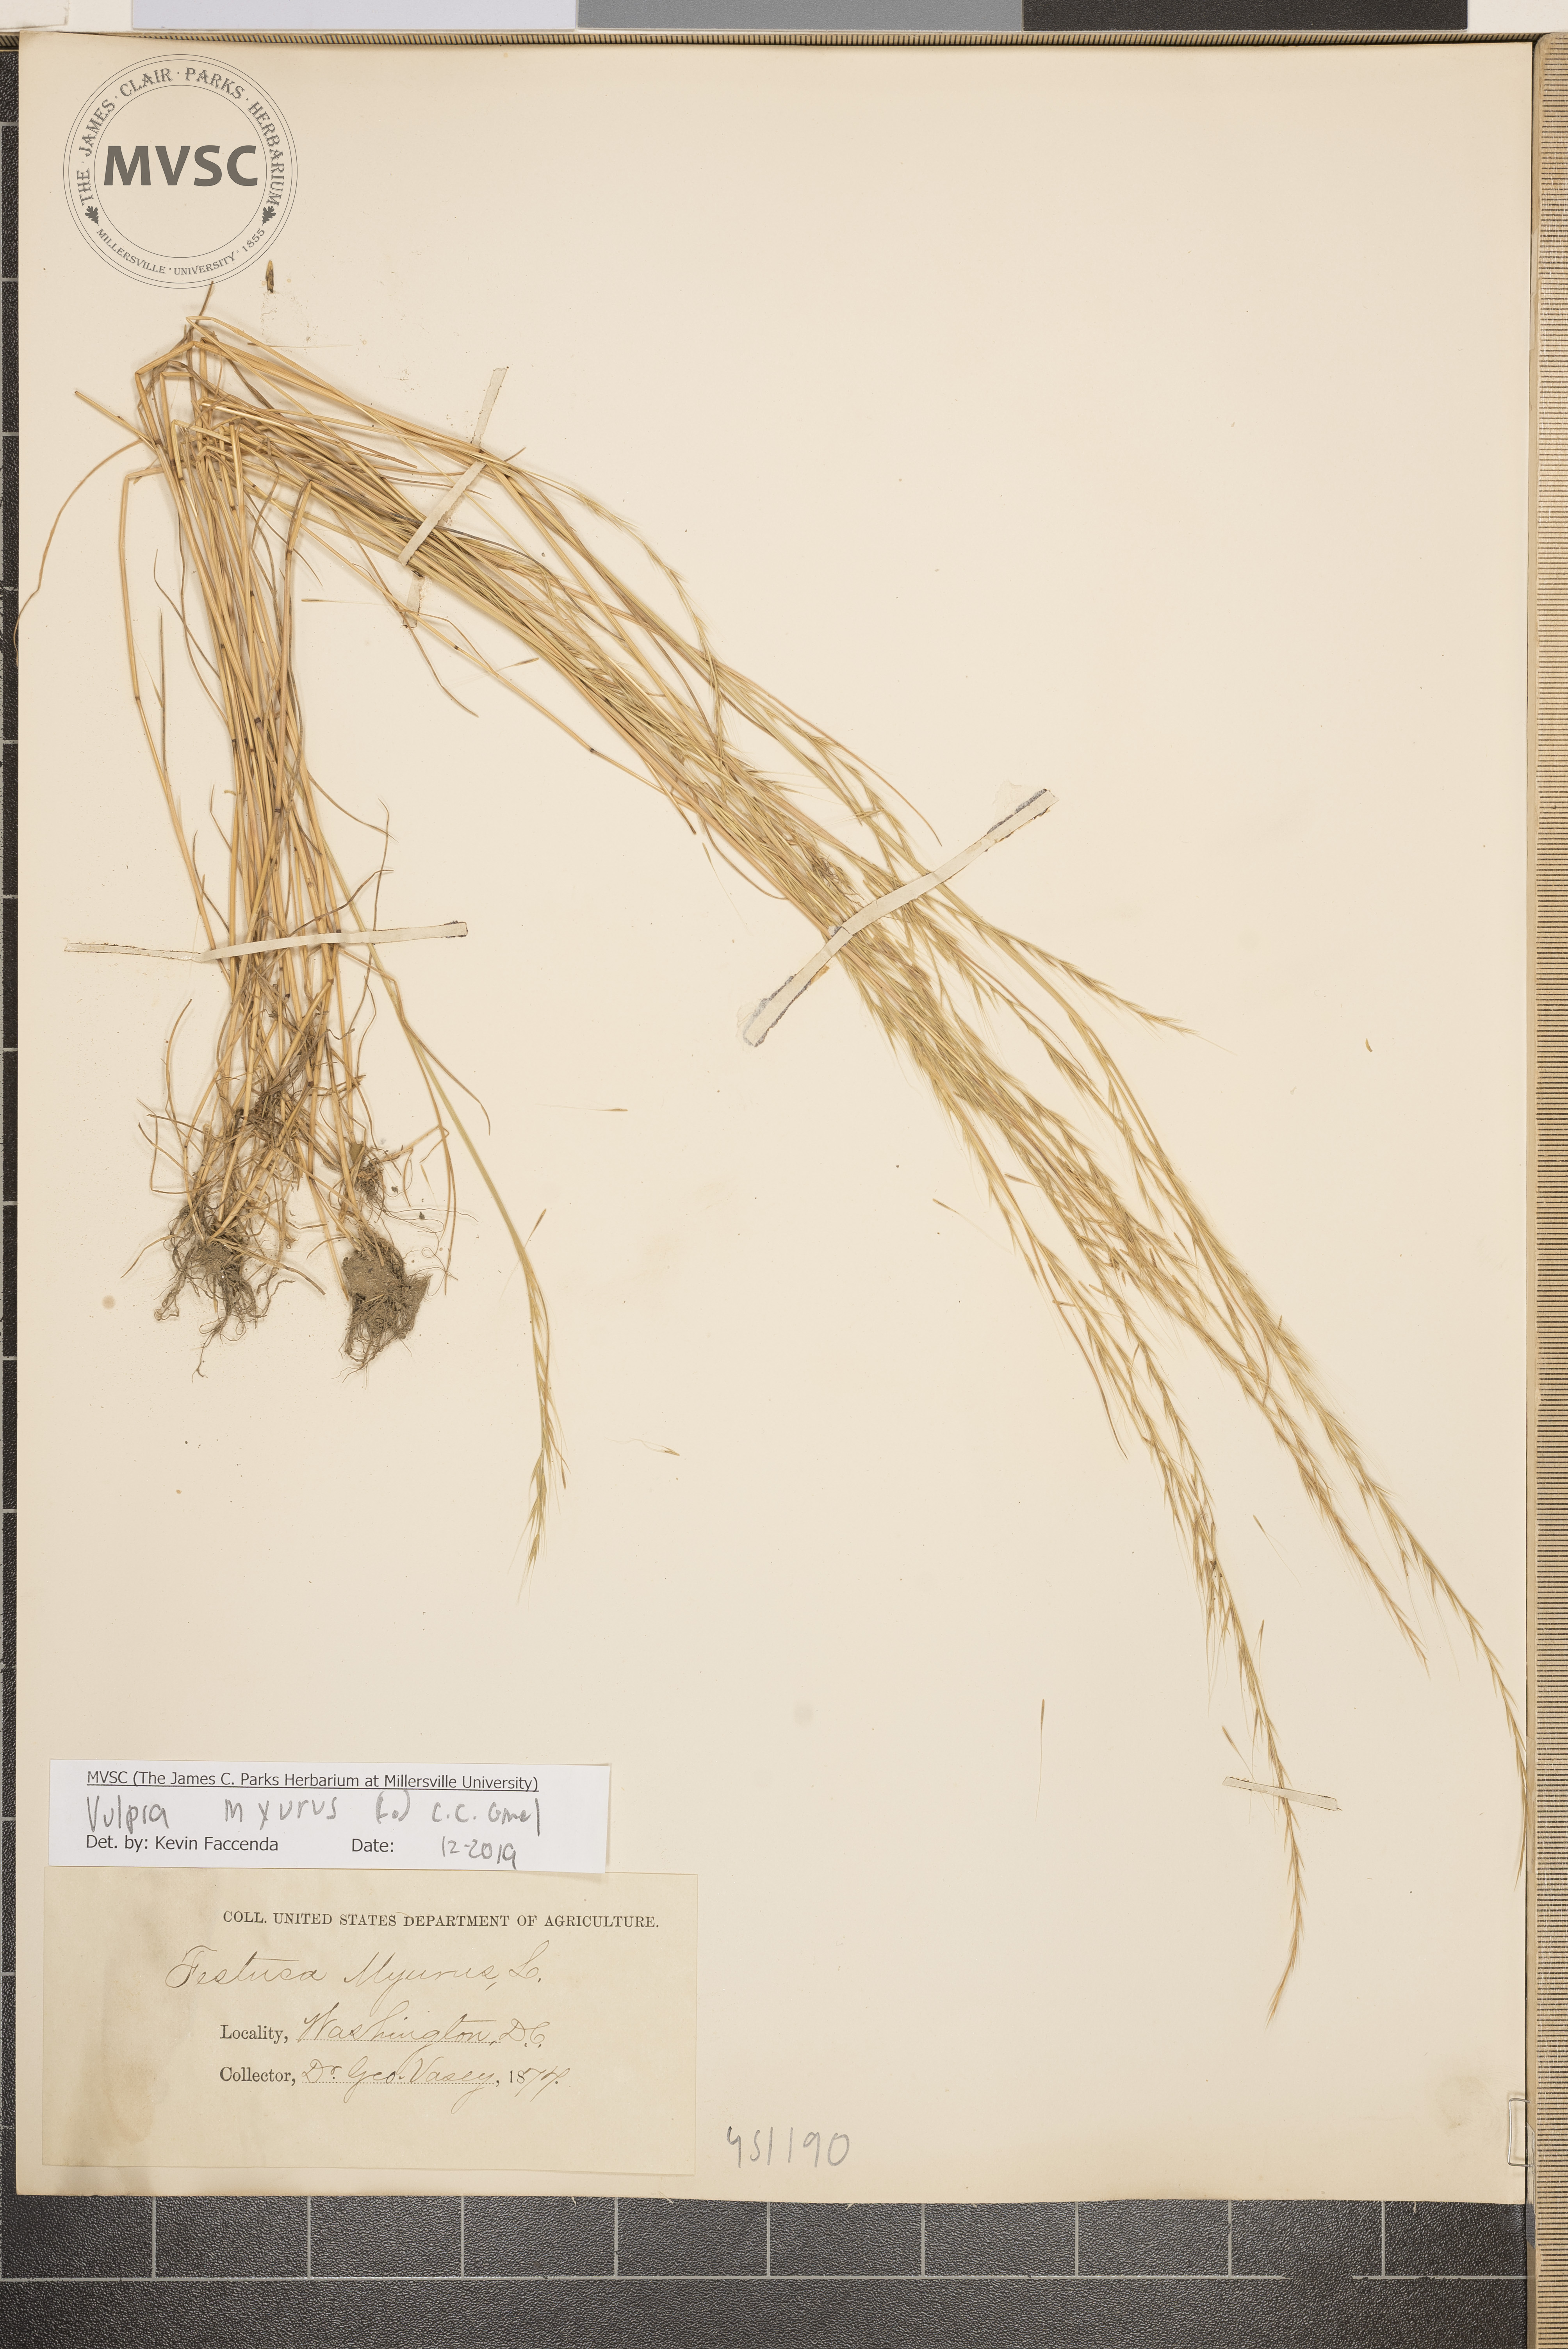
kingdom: Plantae
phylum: Tracheophyta
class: Liliopsida
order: Poales
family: Poaceae
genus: Festuca
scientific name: Festuca myuros
